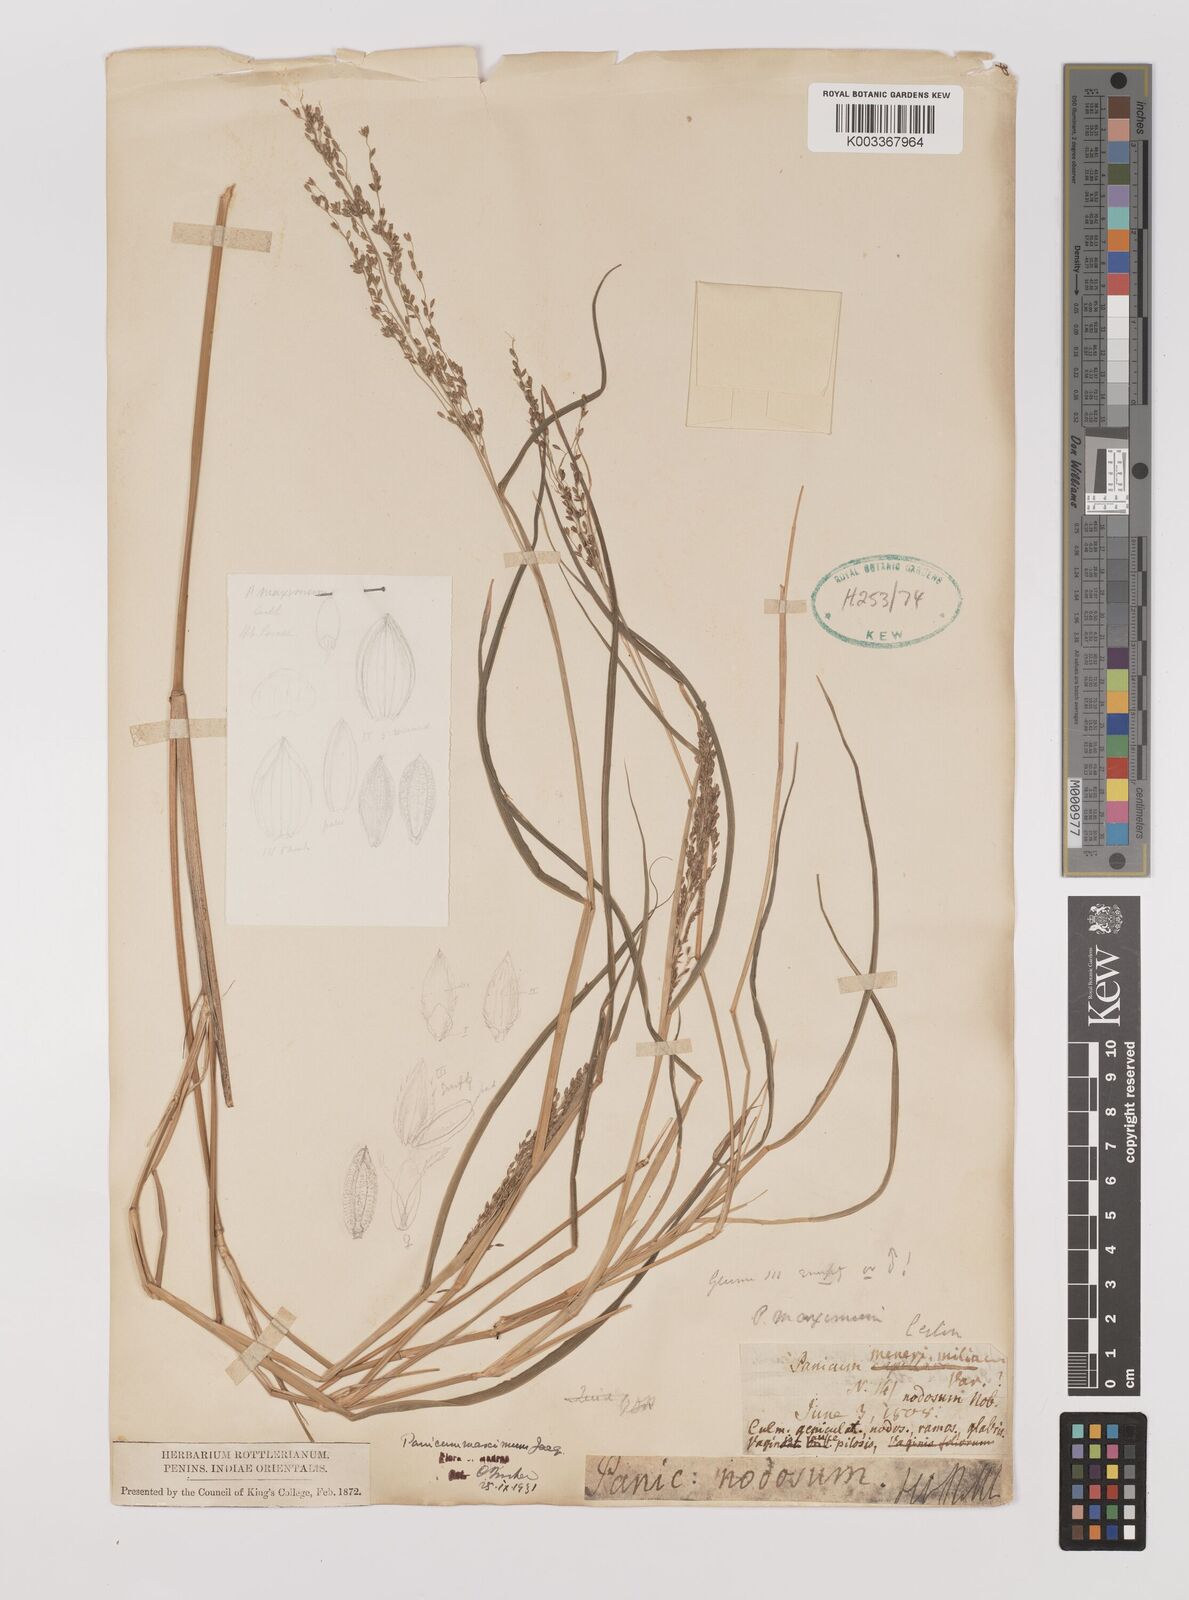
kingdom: Plantae
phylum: Tracheophyta
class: Liliopsida
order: Poales
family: Poaceae
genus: Megathyrsus
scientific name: Megathyrsus maximus
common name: Guineagrass
